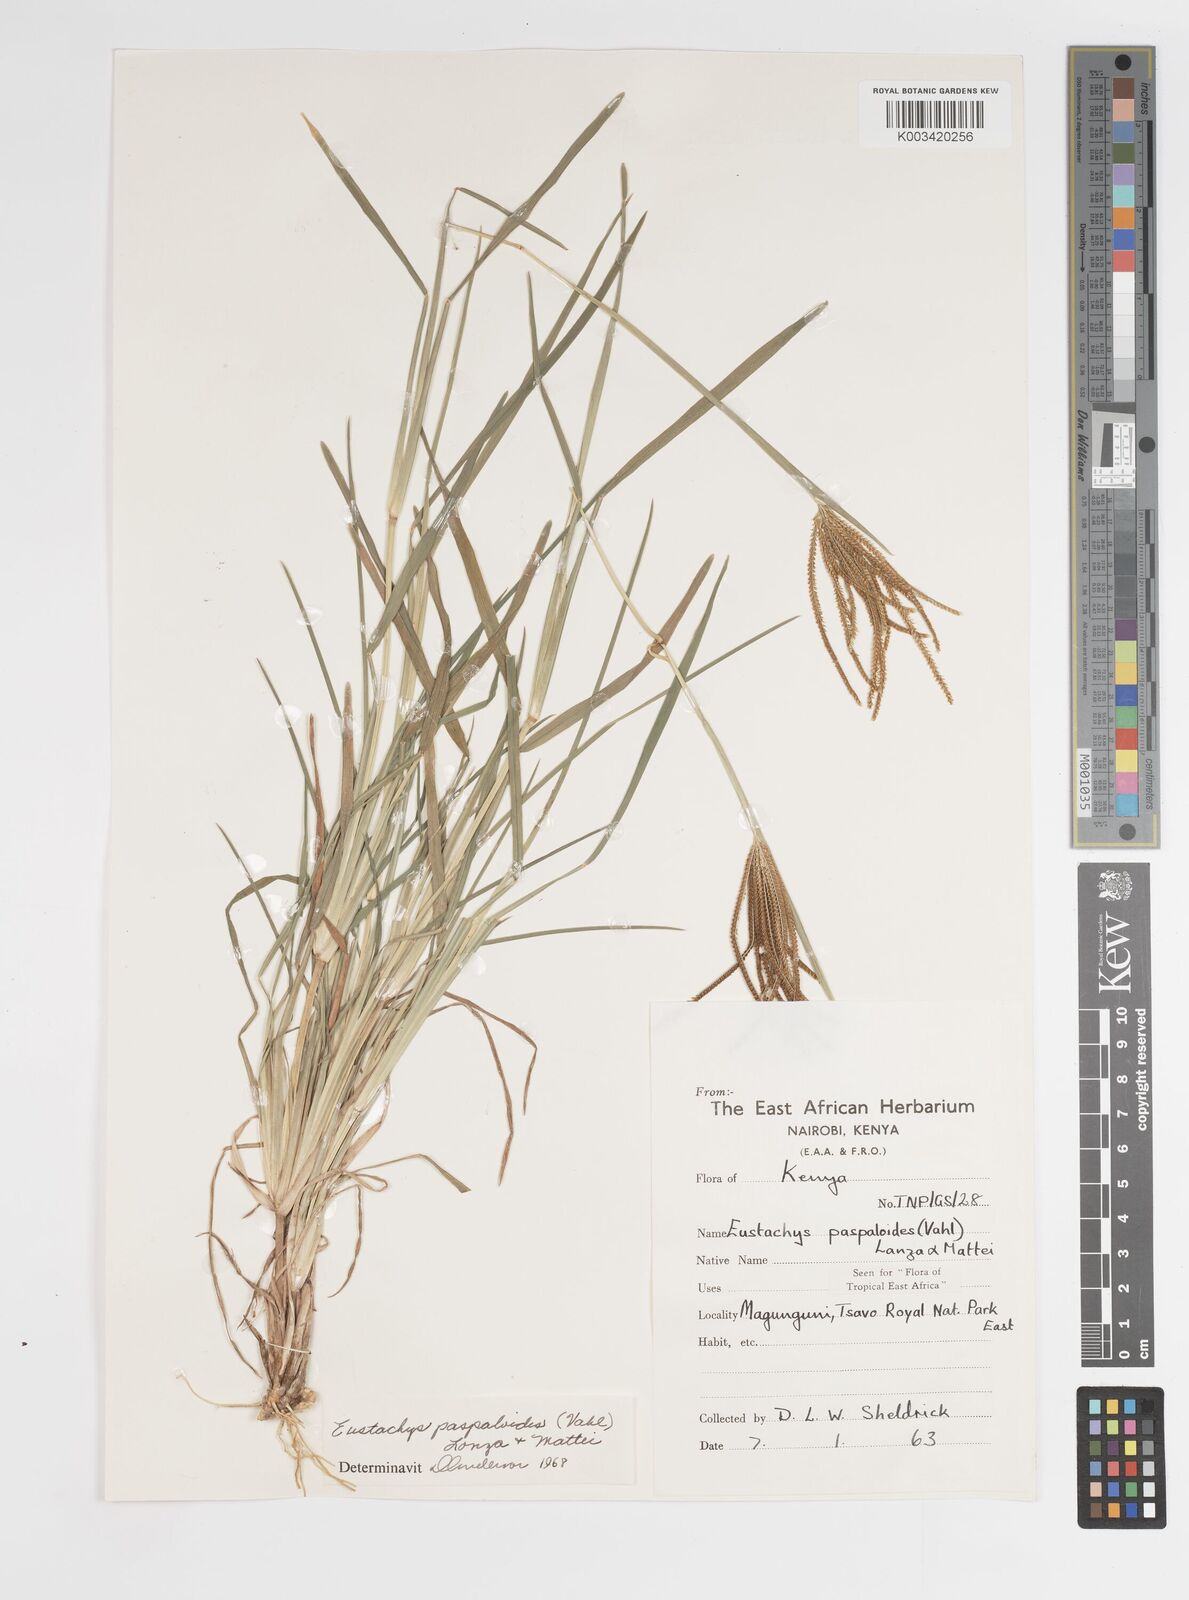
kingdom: Plantae
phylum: Tracheophyta
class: Liliopsida
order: Poales
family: Poaceae
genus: Eustachys
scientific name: Eustachys paspaloides
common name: Caribbean fingergrass
